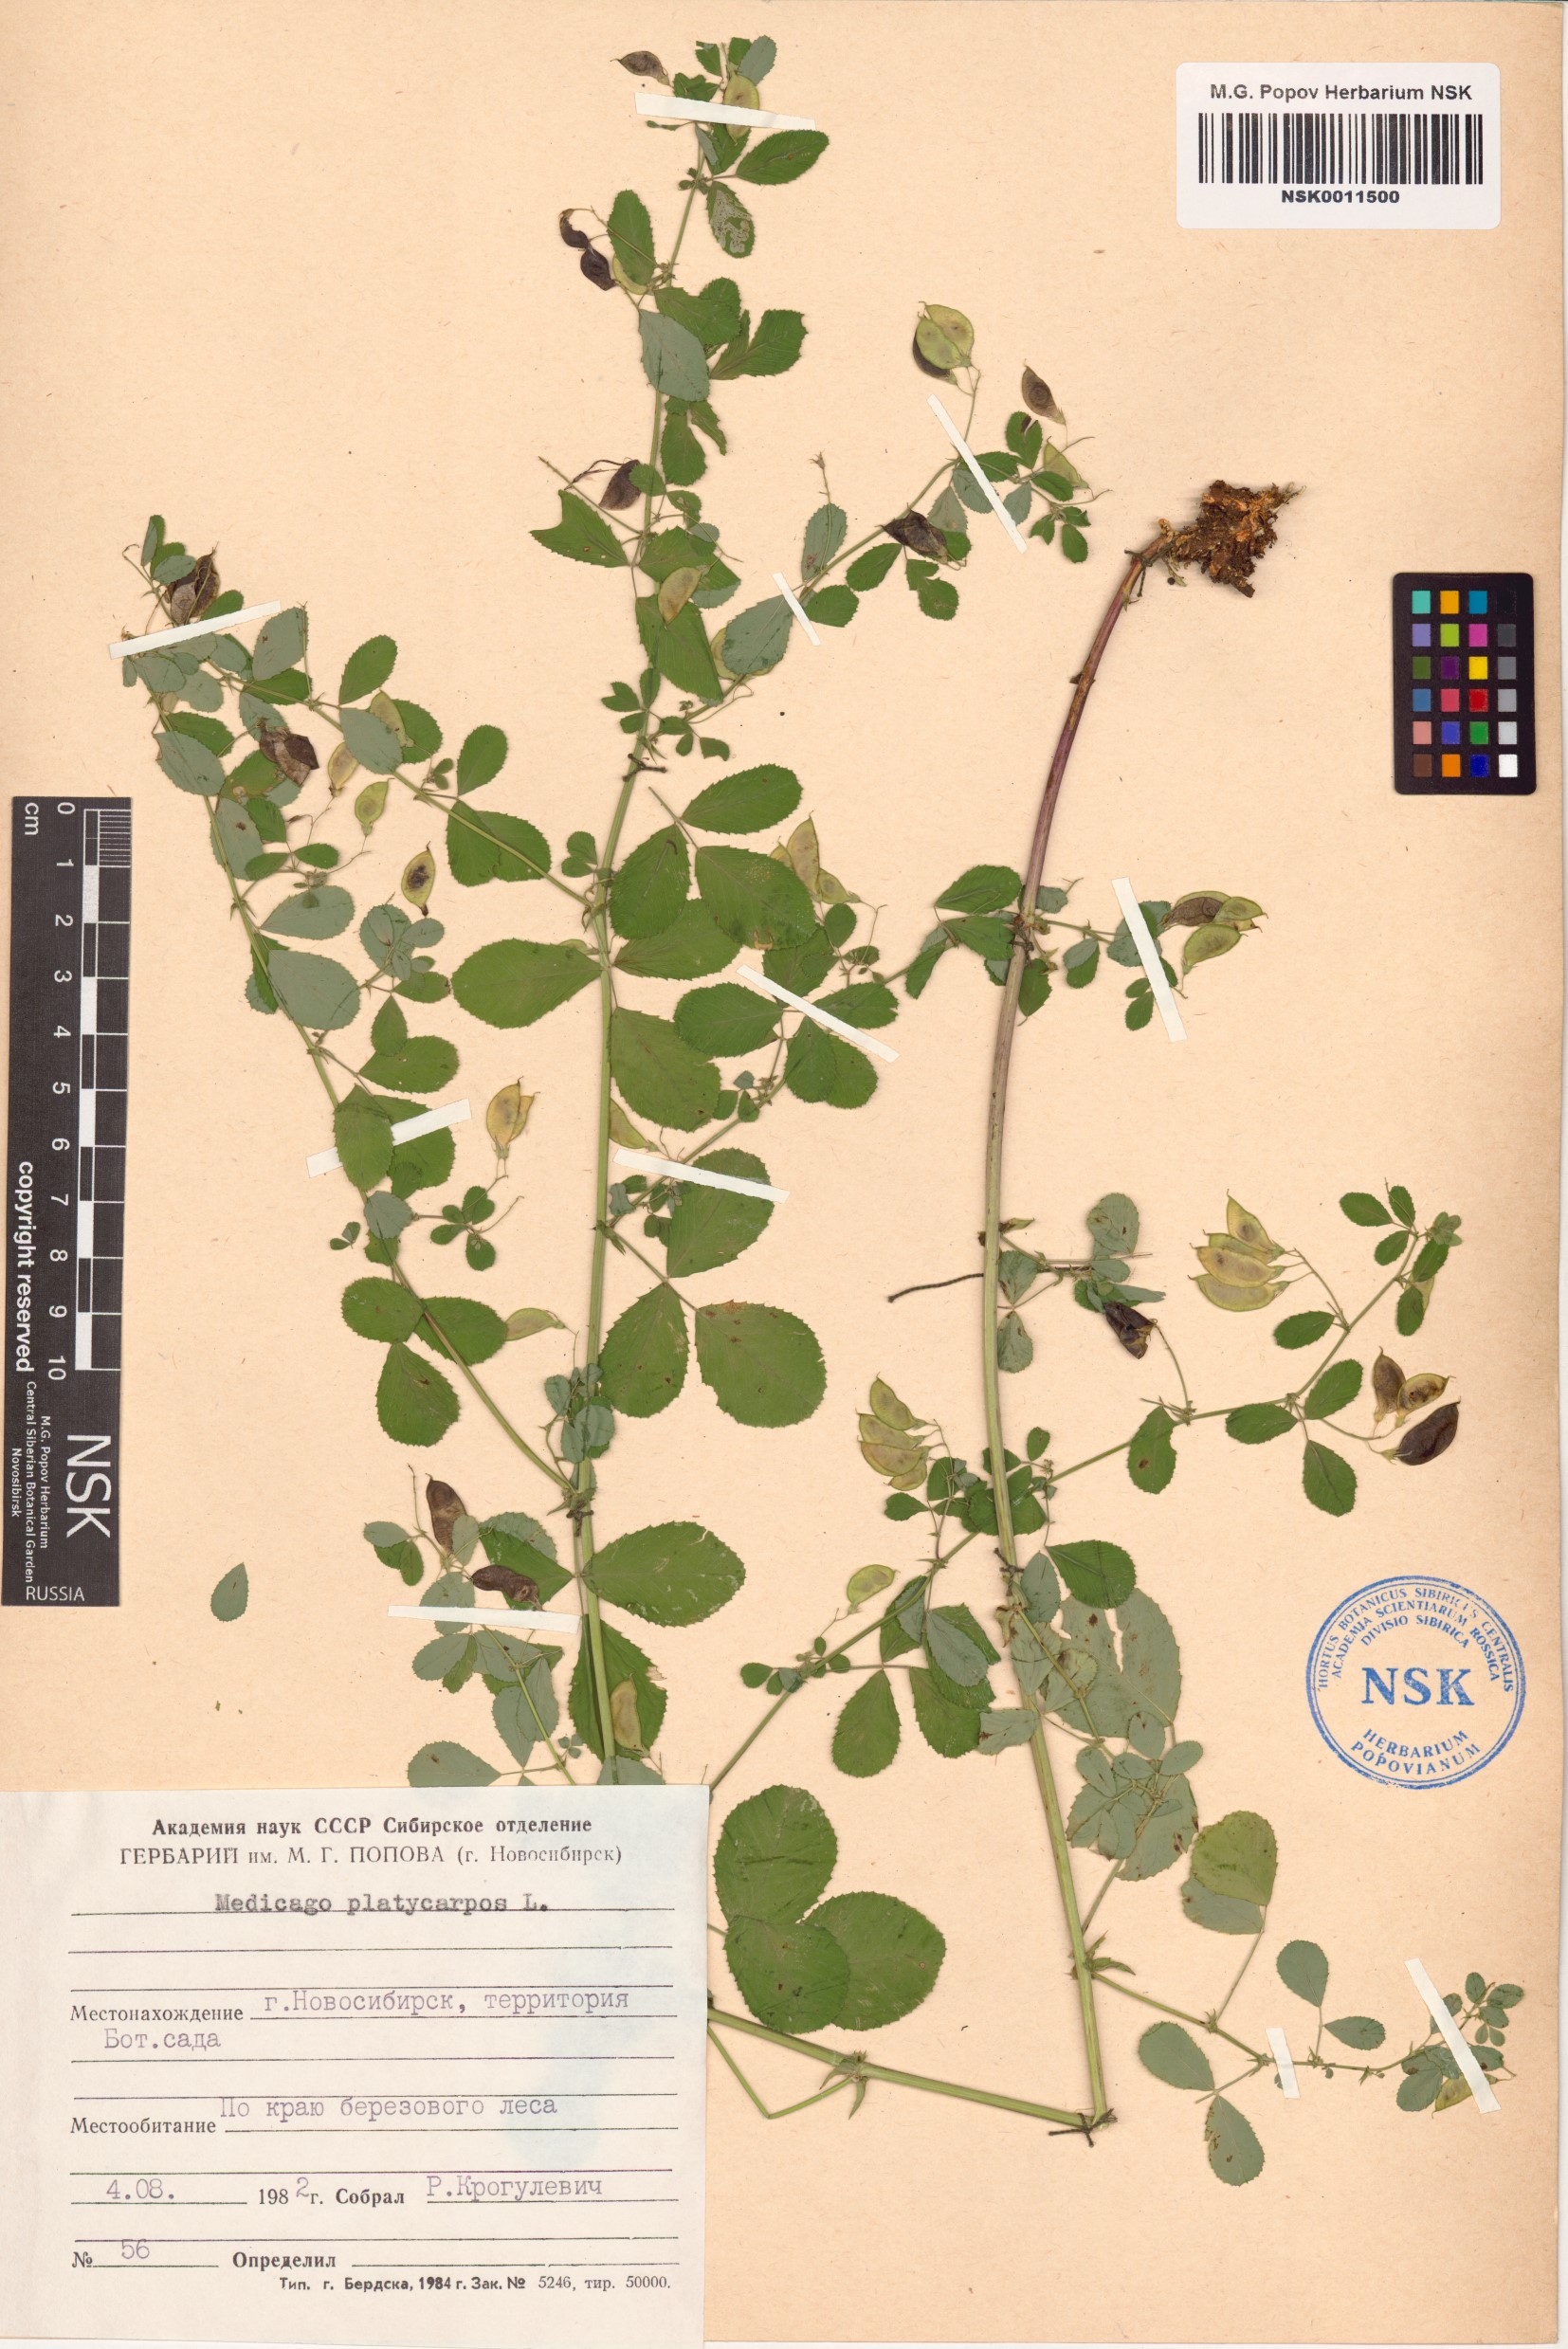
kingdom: Plantae
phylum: Tracheophyta
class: Magnoliopsida
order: Fabales
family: Fabaceae
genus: Medicago
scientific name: Medicago platycarpos
